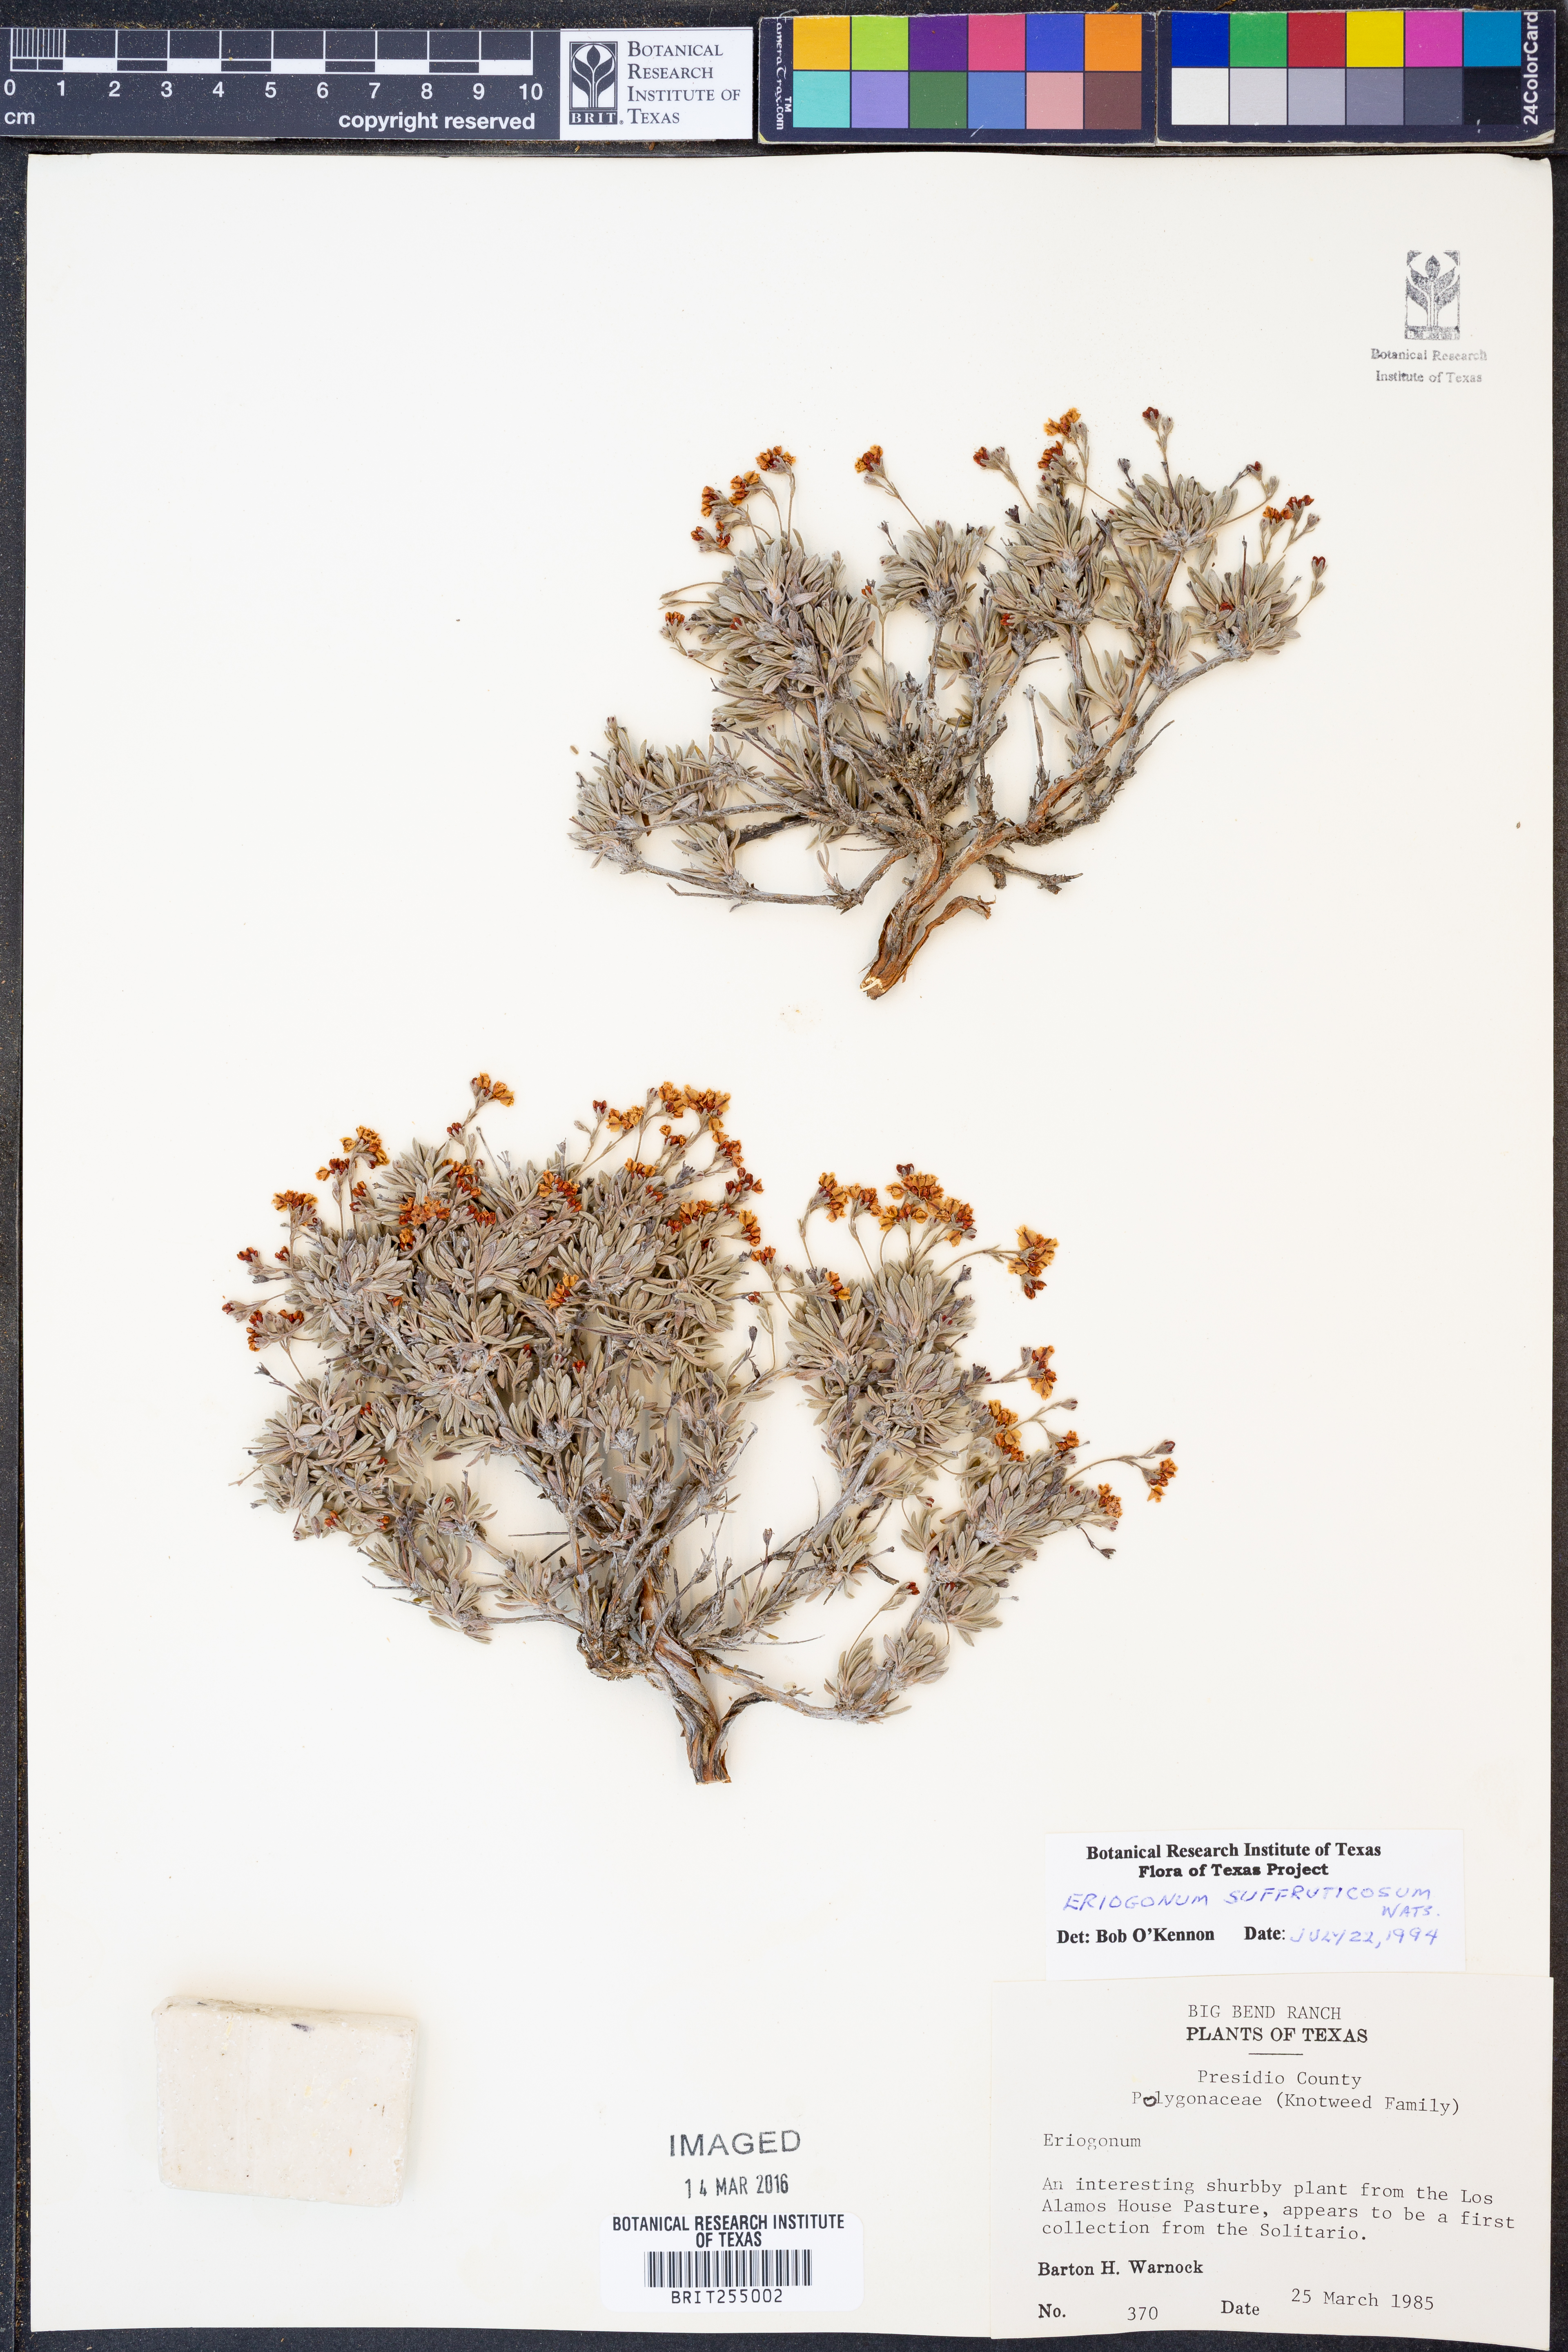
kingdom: Plantae
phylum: Tracheophyta
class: Magnoliopsida
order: Caryophyllales
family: Polygonaceae
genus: Eriogonum
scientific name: Eriogonum suffruticosum
